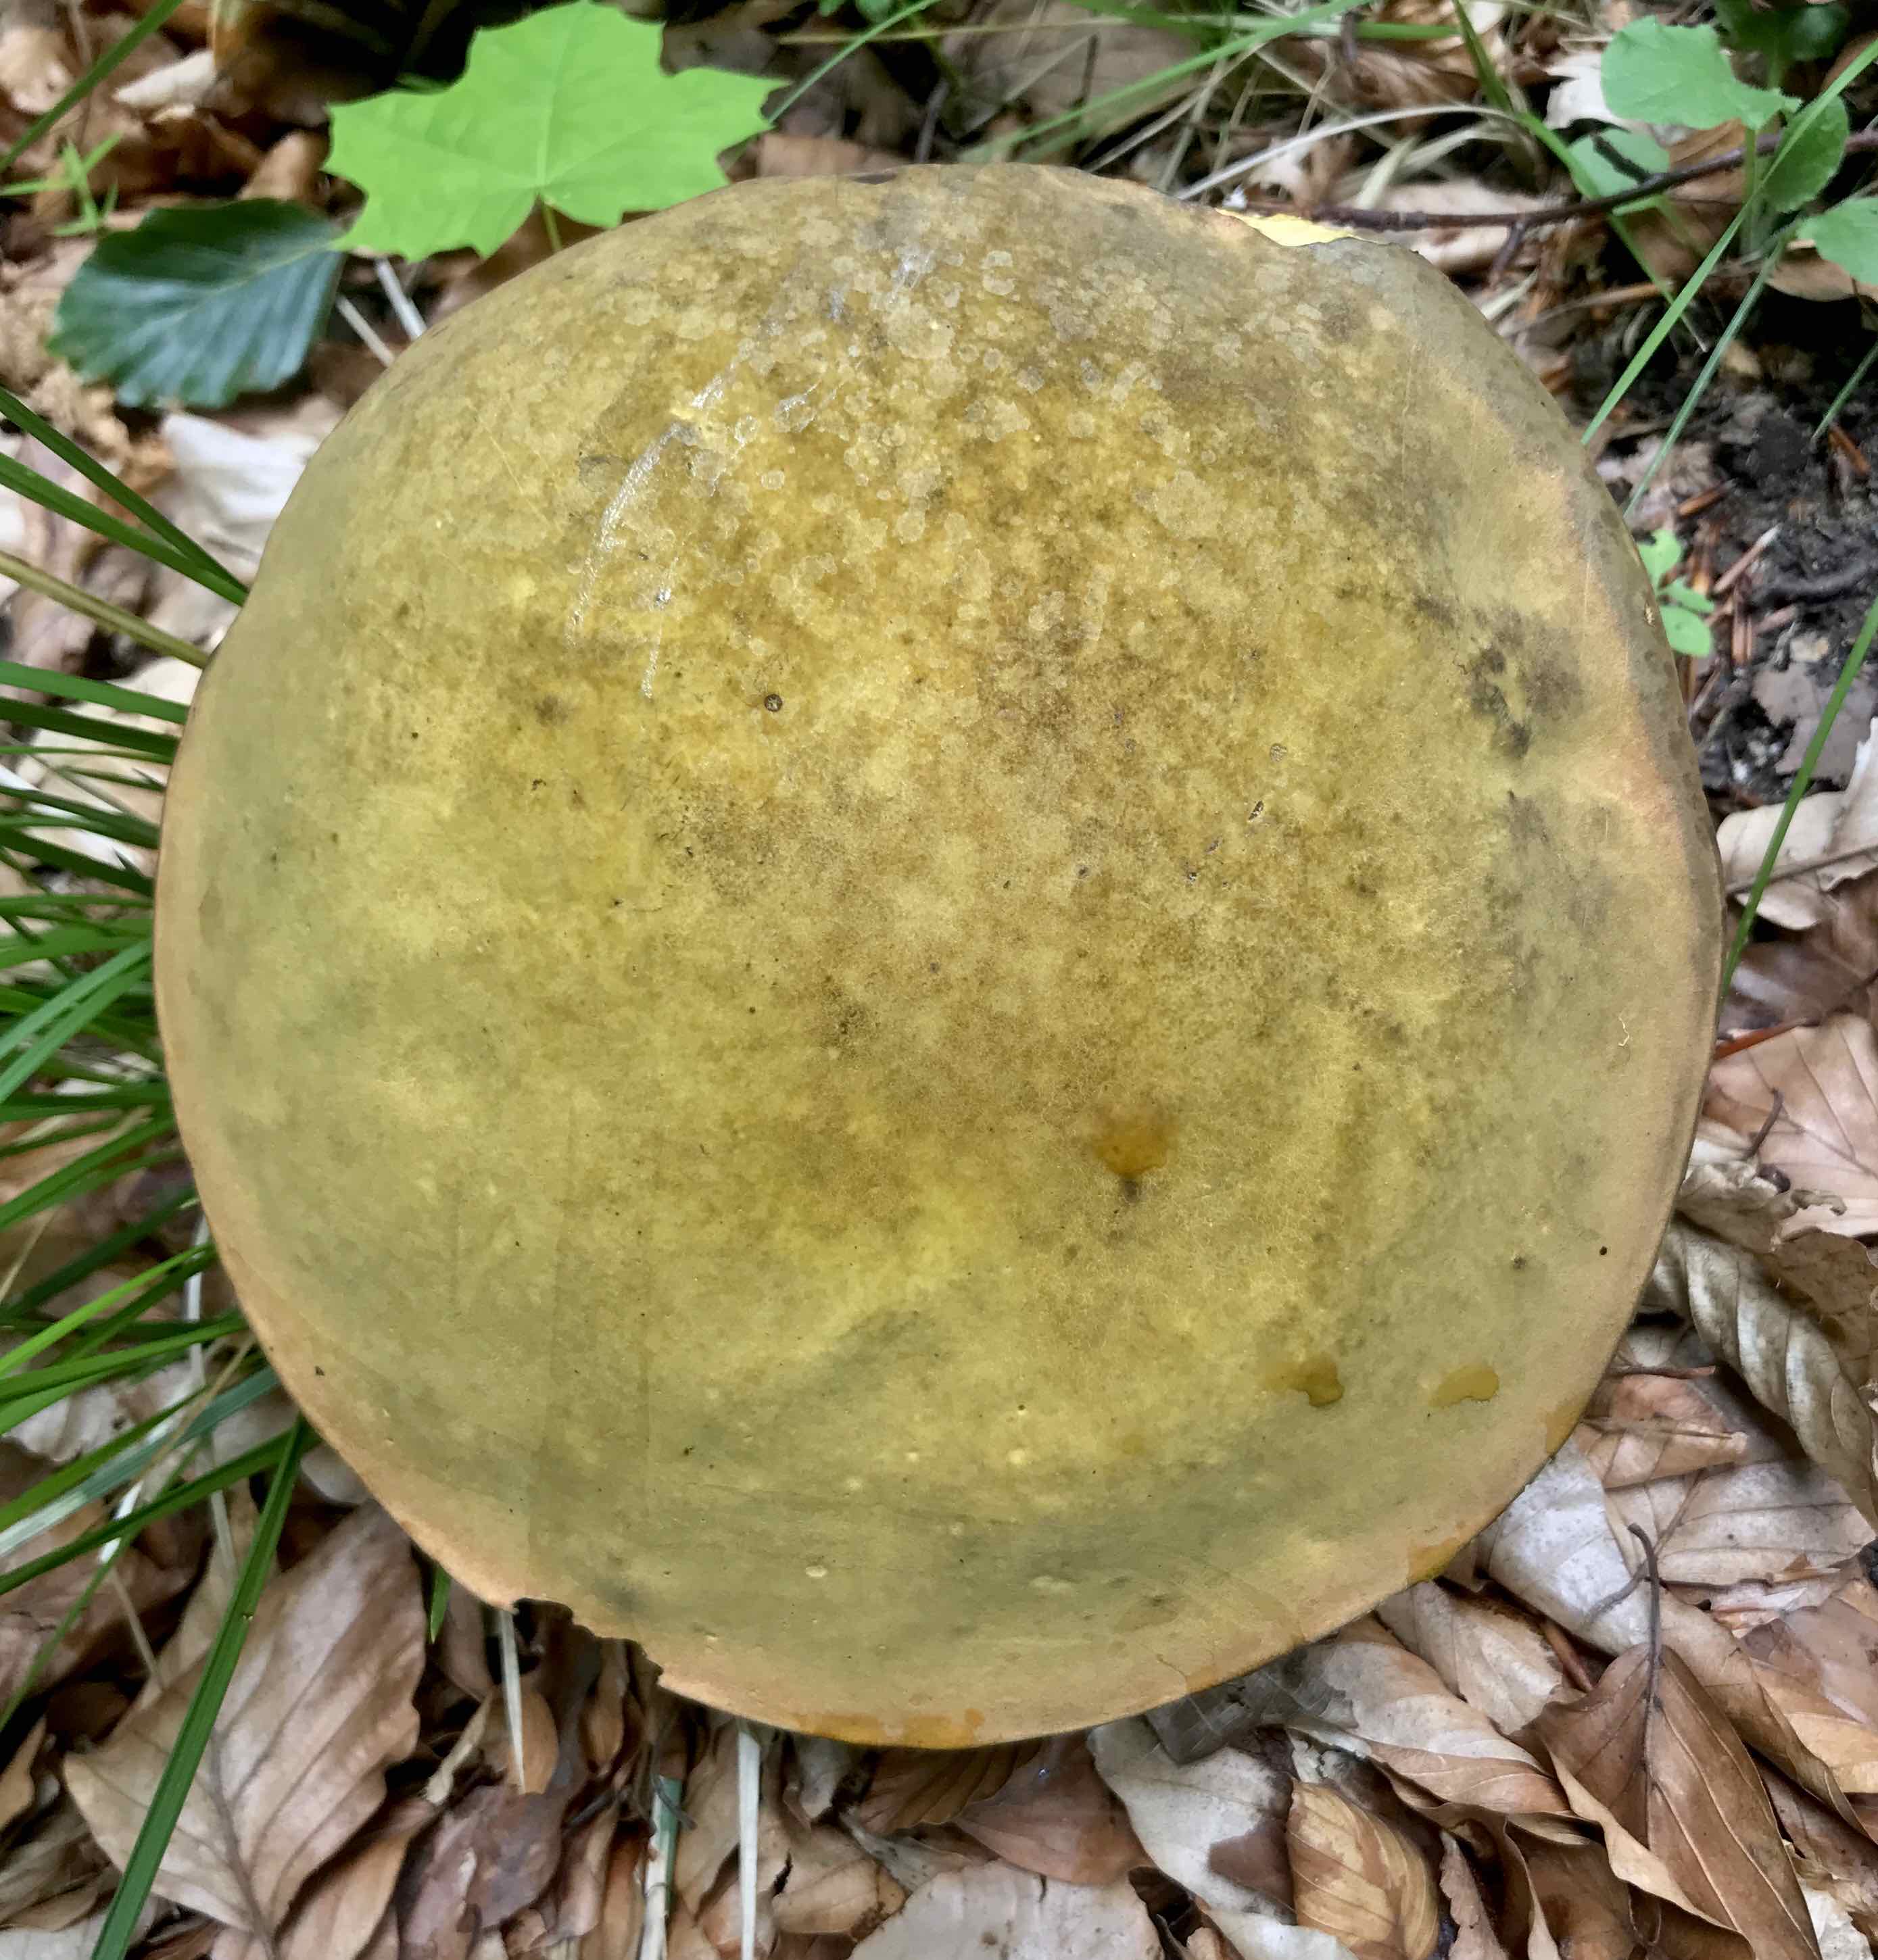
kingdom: Fungi
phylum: Basidiomycota
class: Agaricomycetes
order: Boletales
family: Boletaceae
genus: Suillellus
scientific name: Suillellus luridus
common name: netstokket indigorørhat
